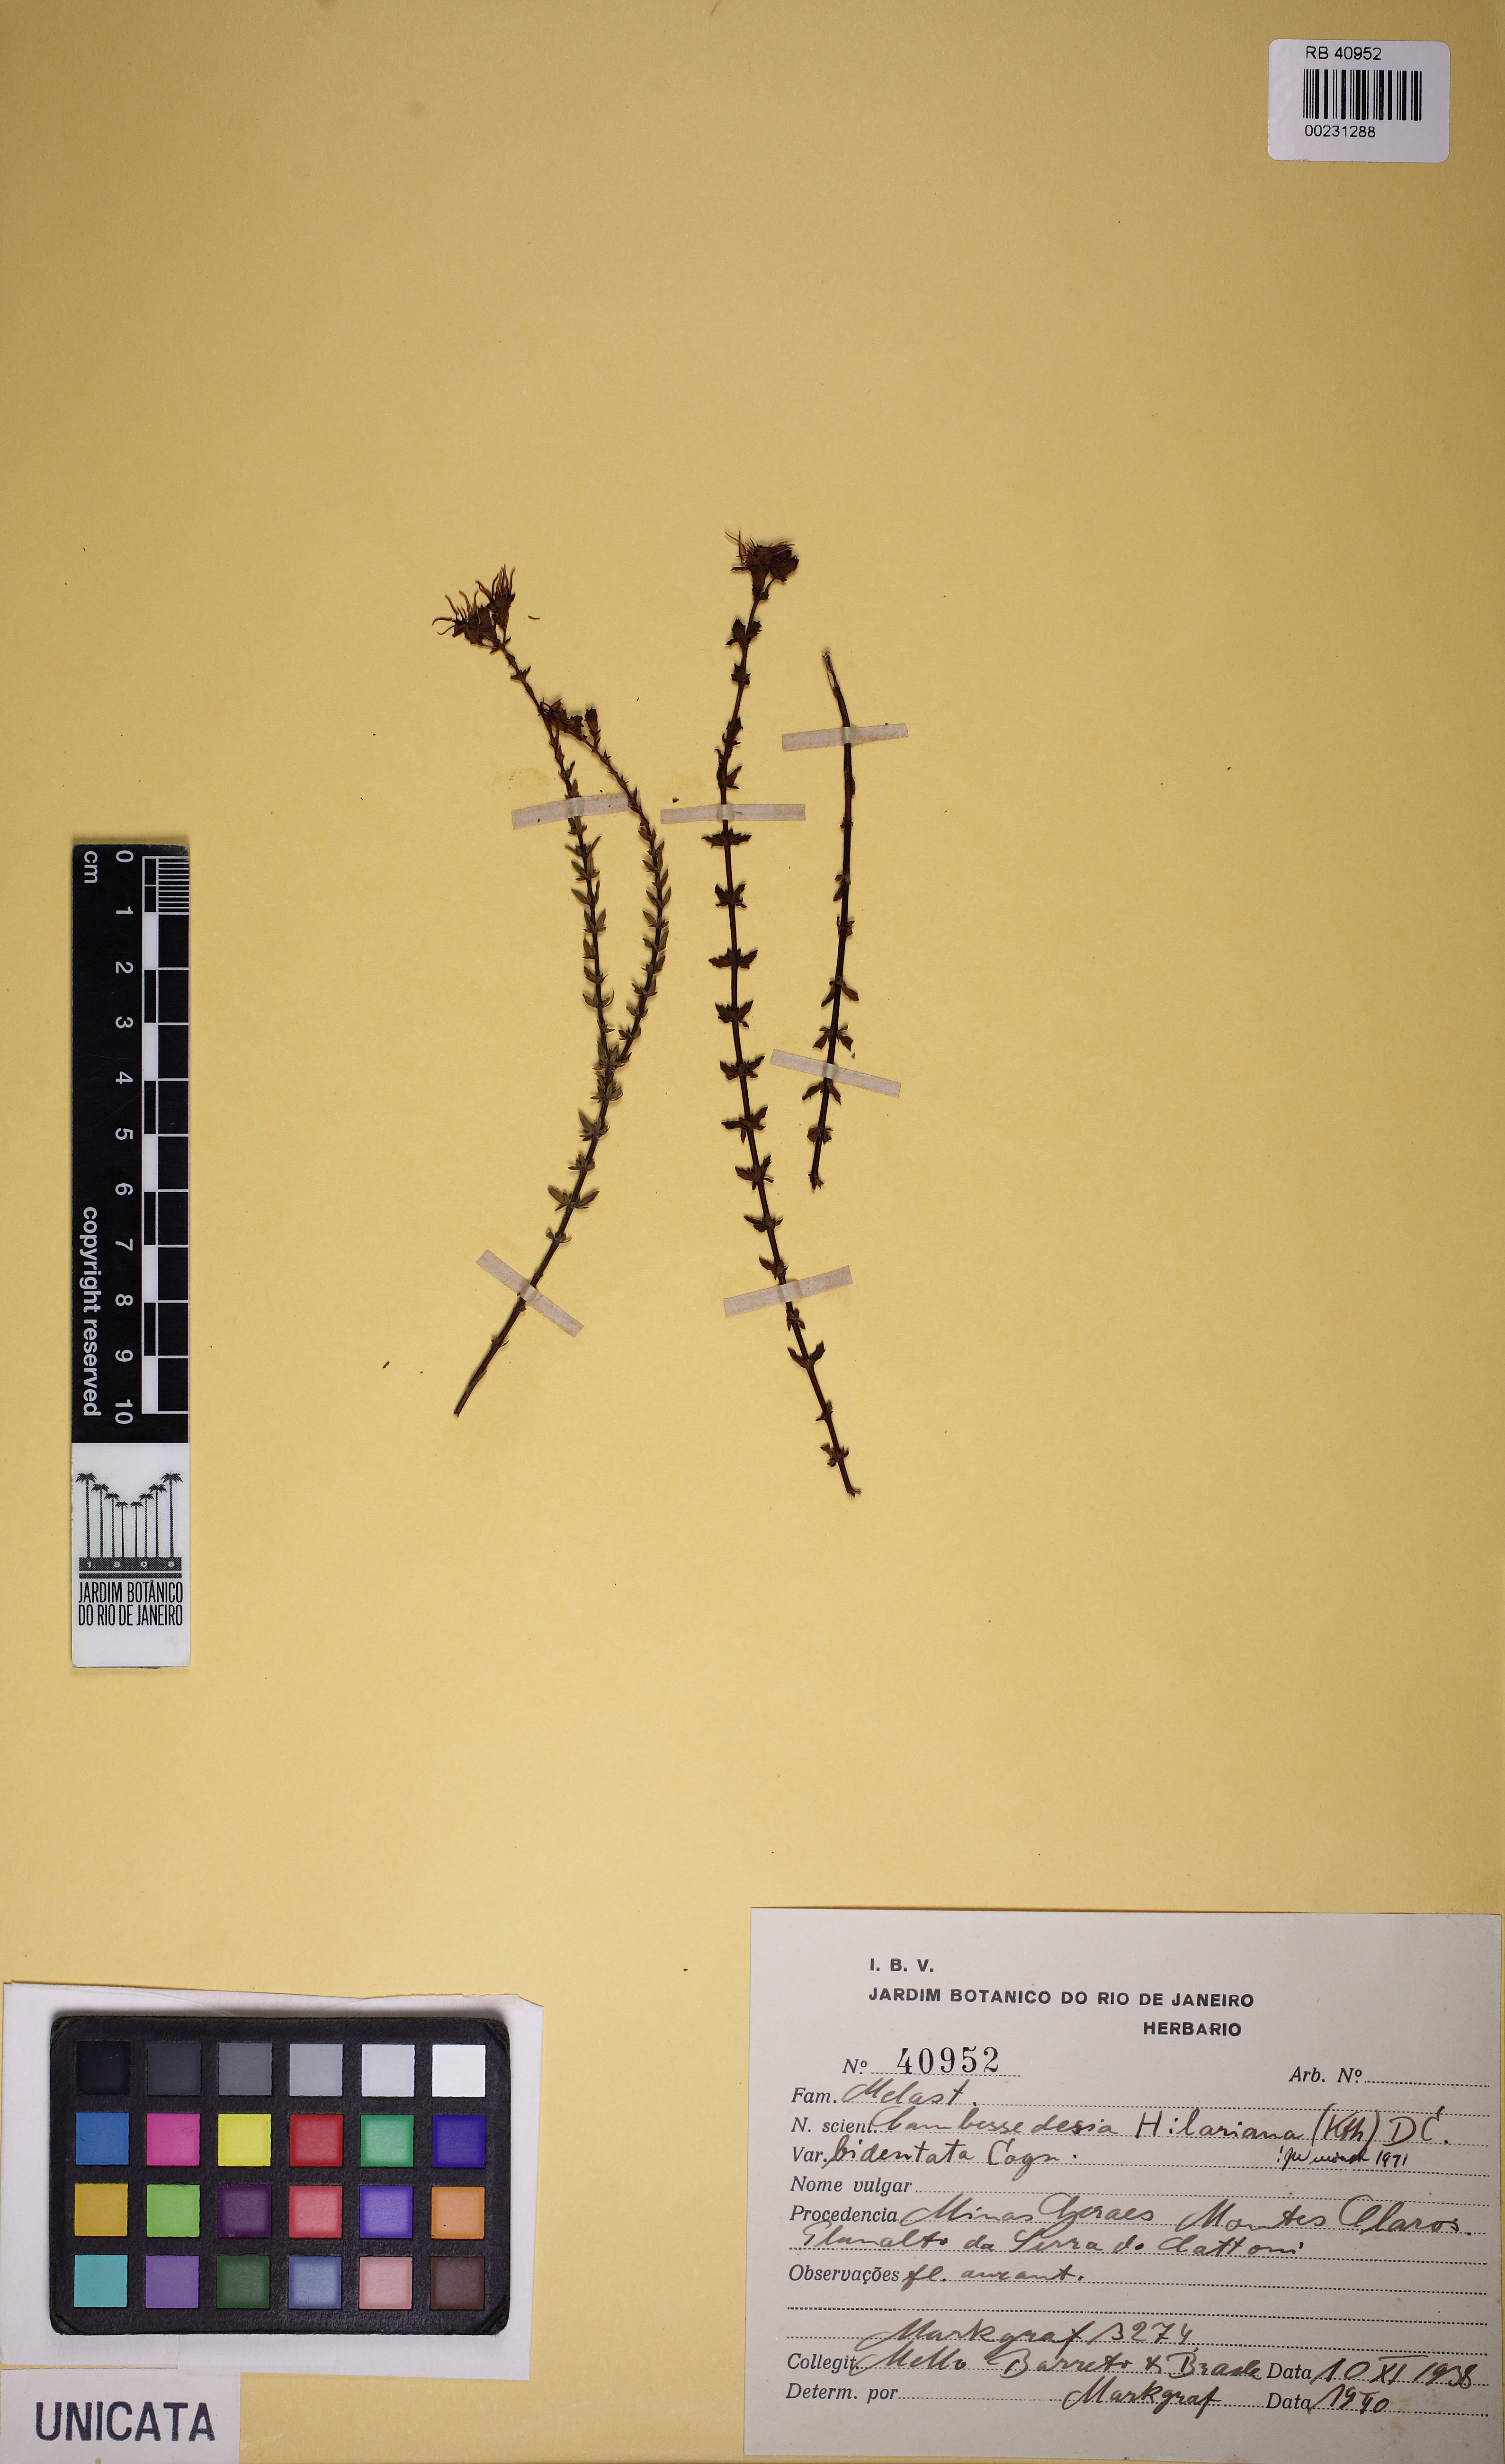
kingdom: Plantae
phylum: Tracheophyta
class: Magnoliopsida
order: Myrtales
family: Melastomataceae
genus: Cambessedesia
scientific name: Cambessedesia hilariana
